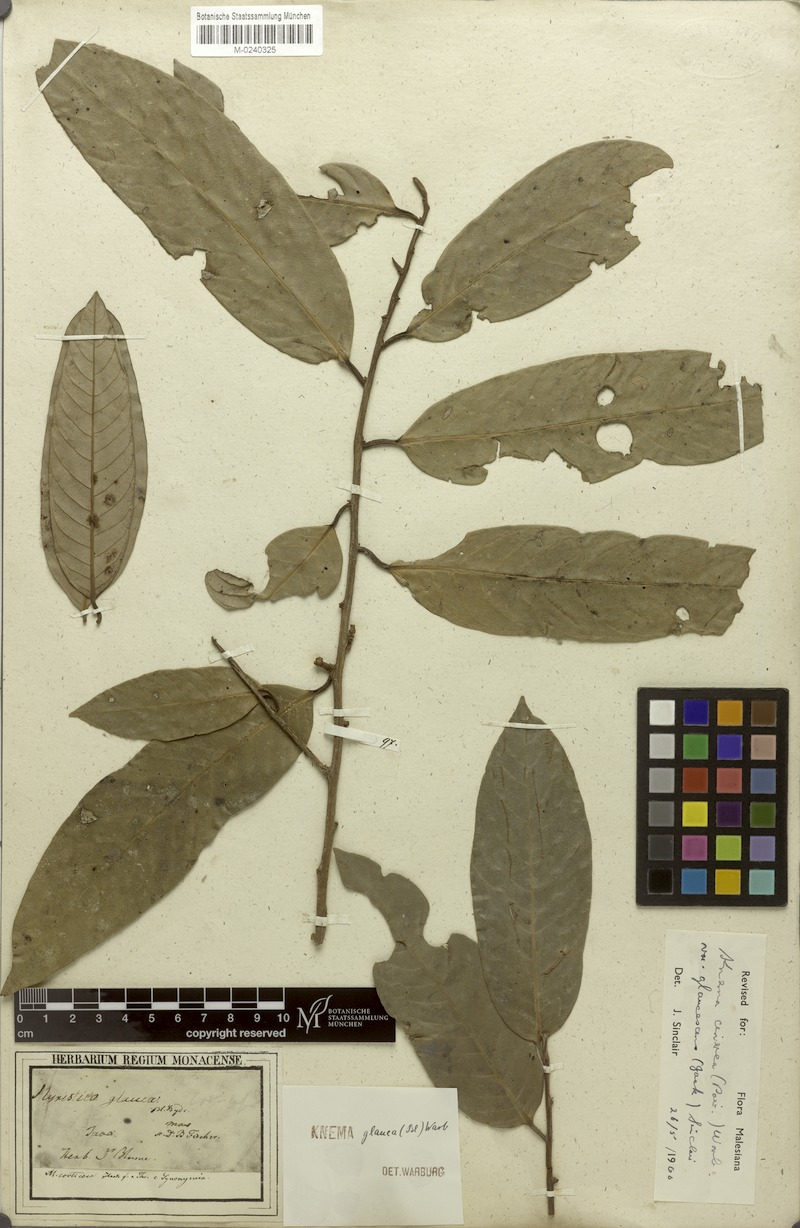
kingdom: Plantae
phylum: Tracheophyta
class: Magnoliopsida
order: Magnoliales
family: Myristicaceae
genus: Knema
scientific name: Knema cinerea
